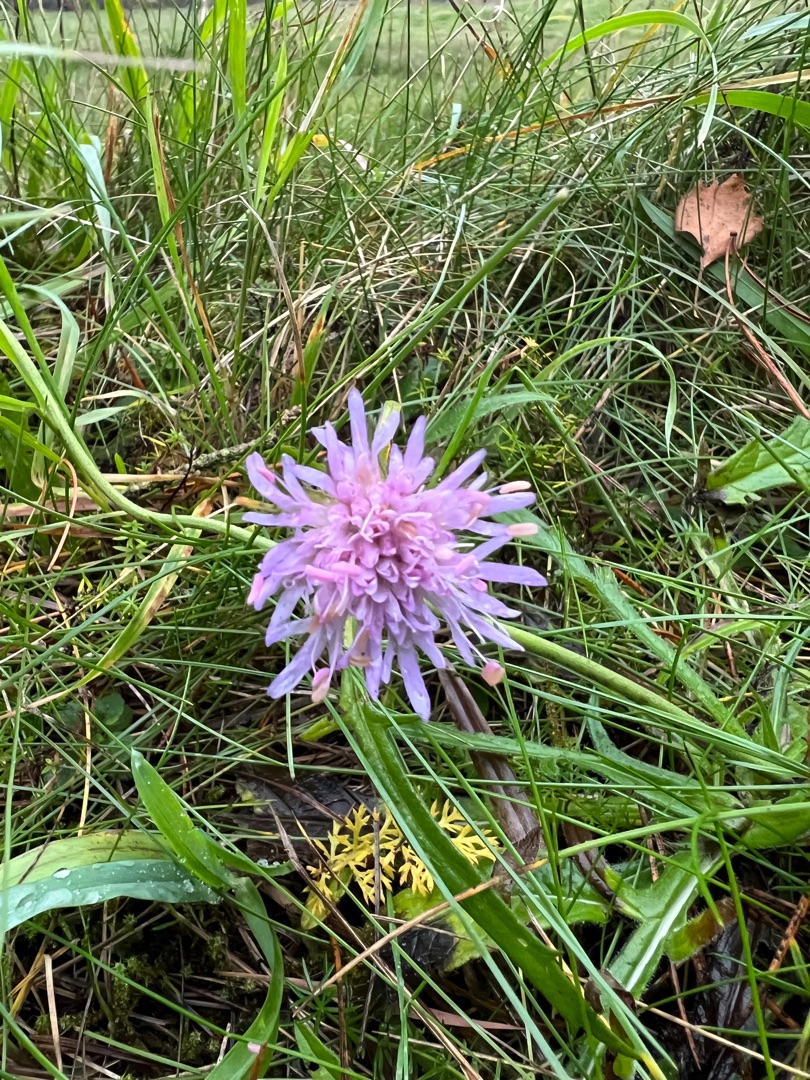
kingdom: Plantae
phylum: Tracheophyta
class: Magnoliopsida
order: Dipsacales
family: Caprifoliaceae
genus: Knautia
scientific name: Knautia arvensis
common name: Blåhat
